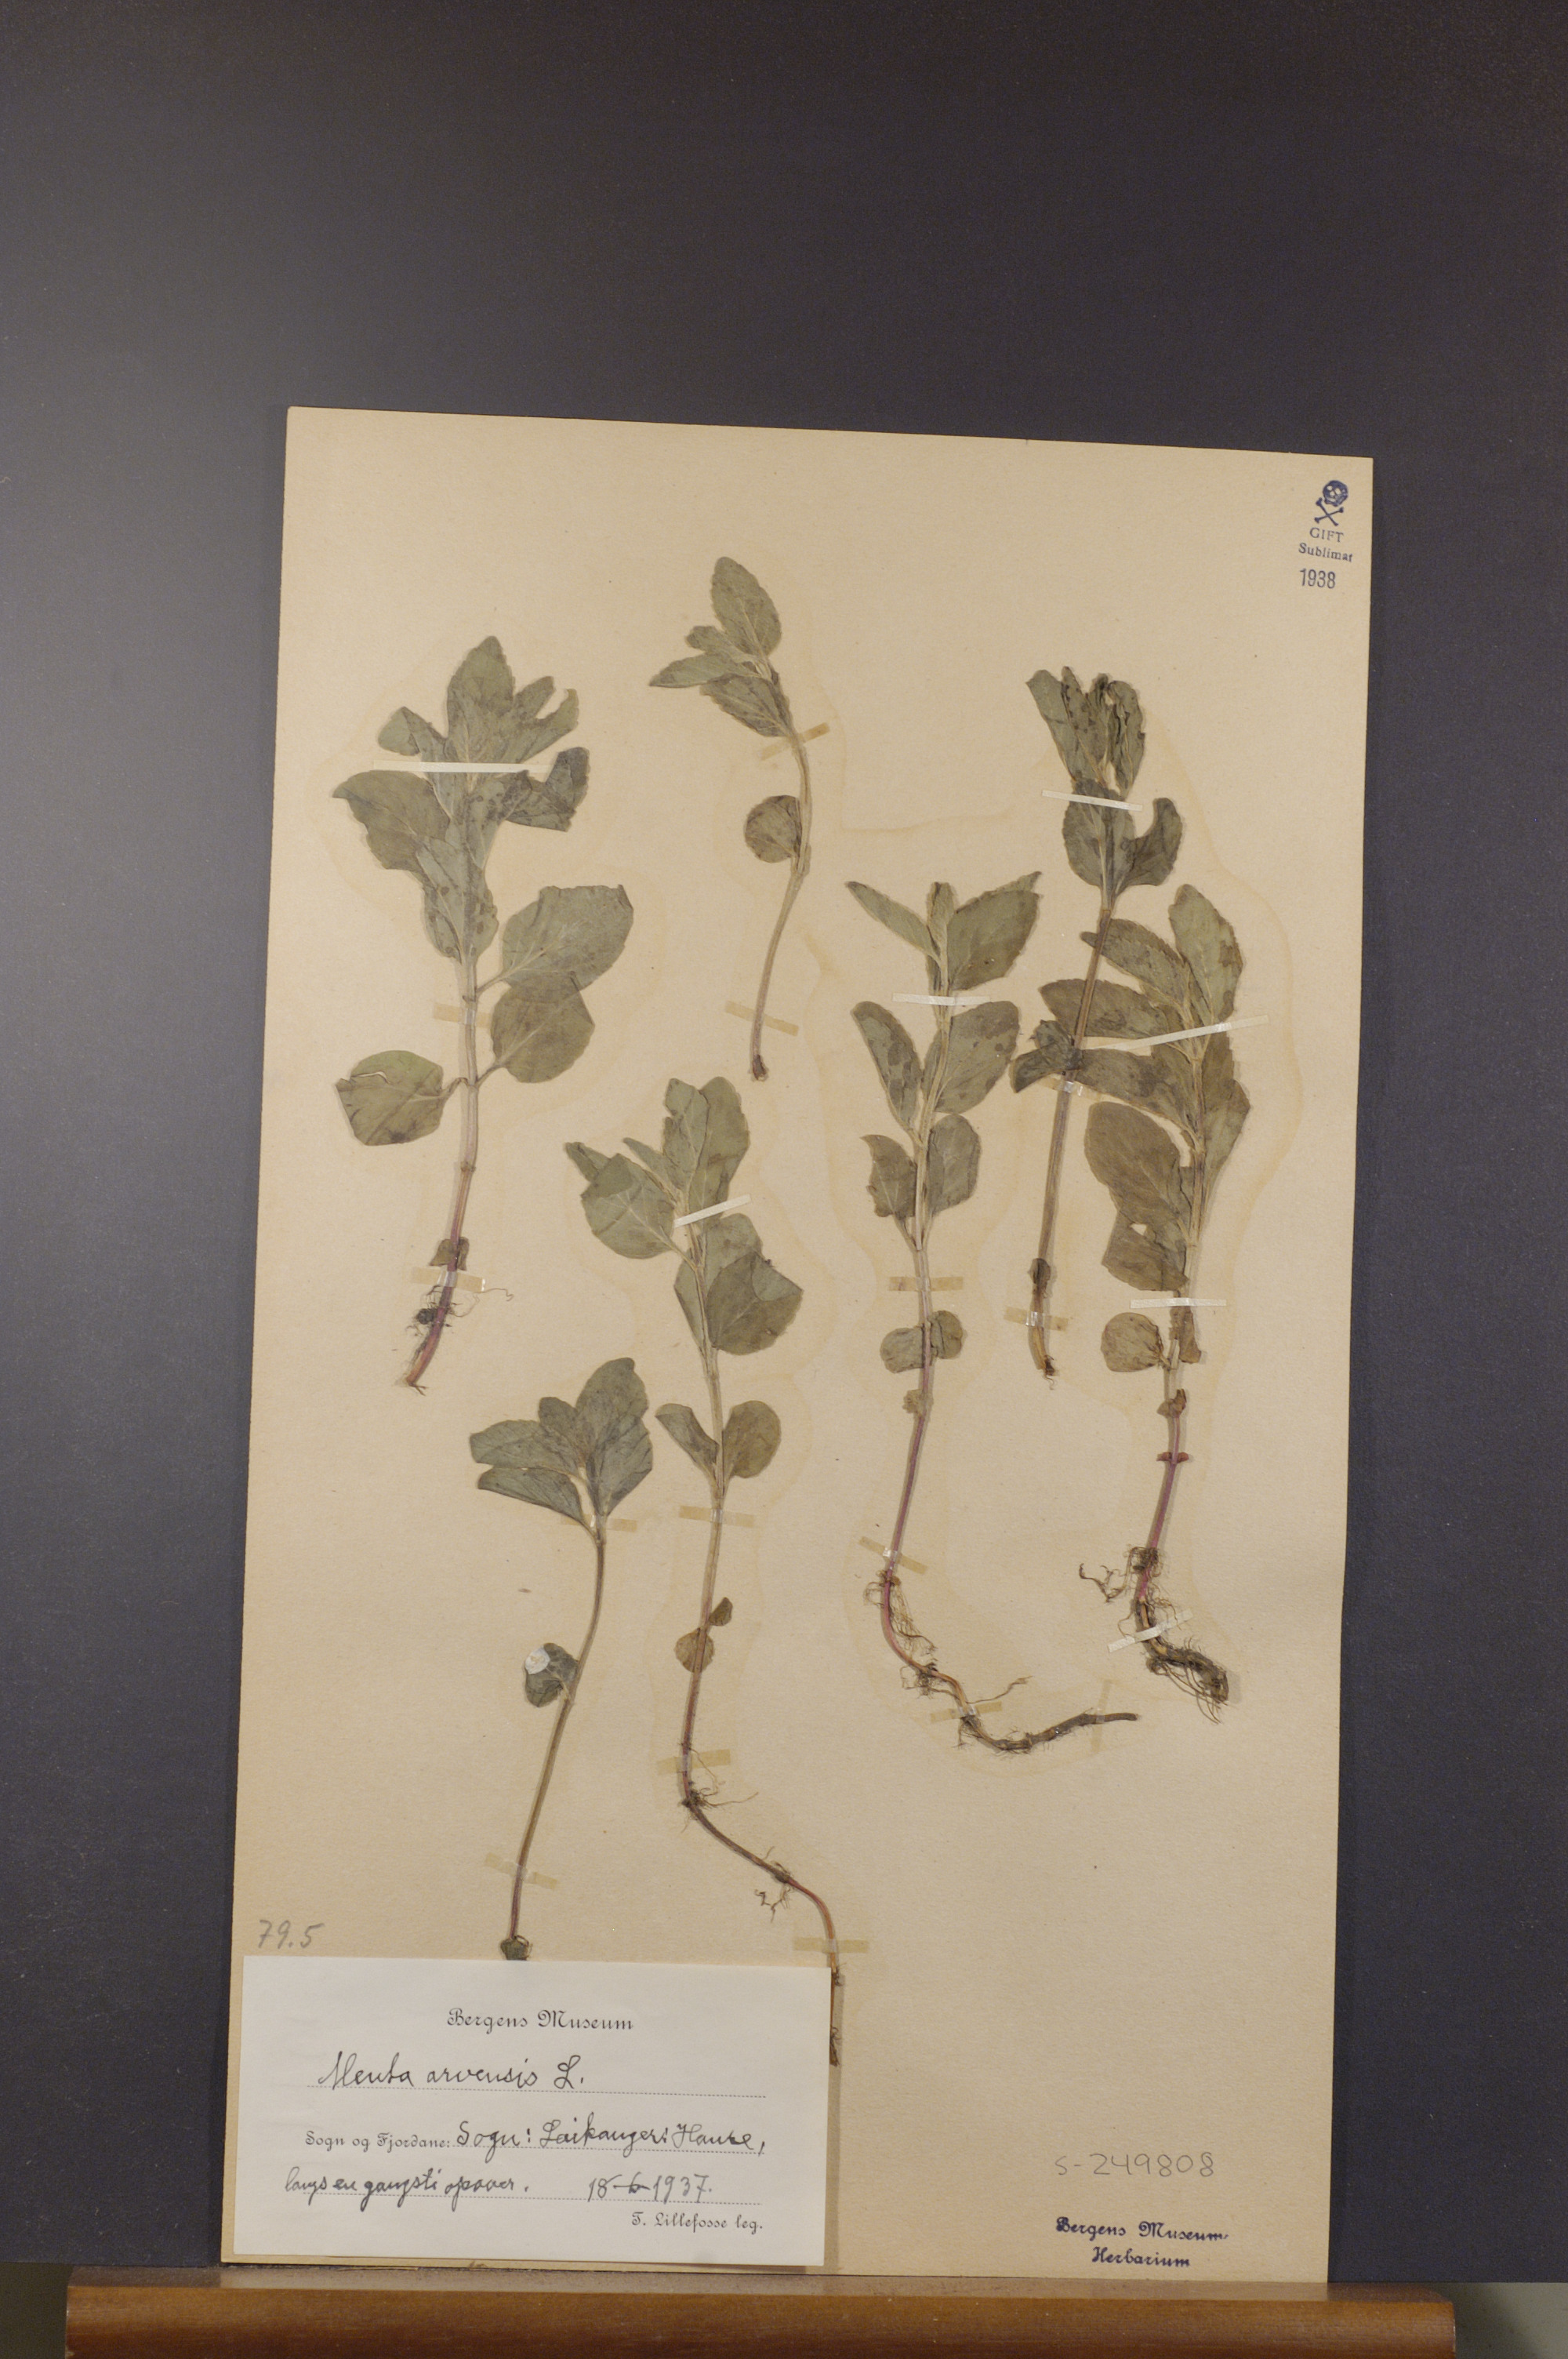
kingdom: Plantae
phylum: Tracheophyta
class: Magnoliopsida
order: Lamiales
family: Lamiaceae
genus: Mentha
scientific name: Mentha arvensis
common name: Corn mint
